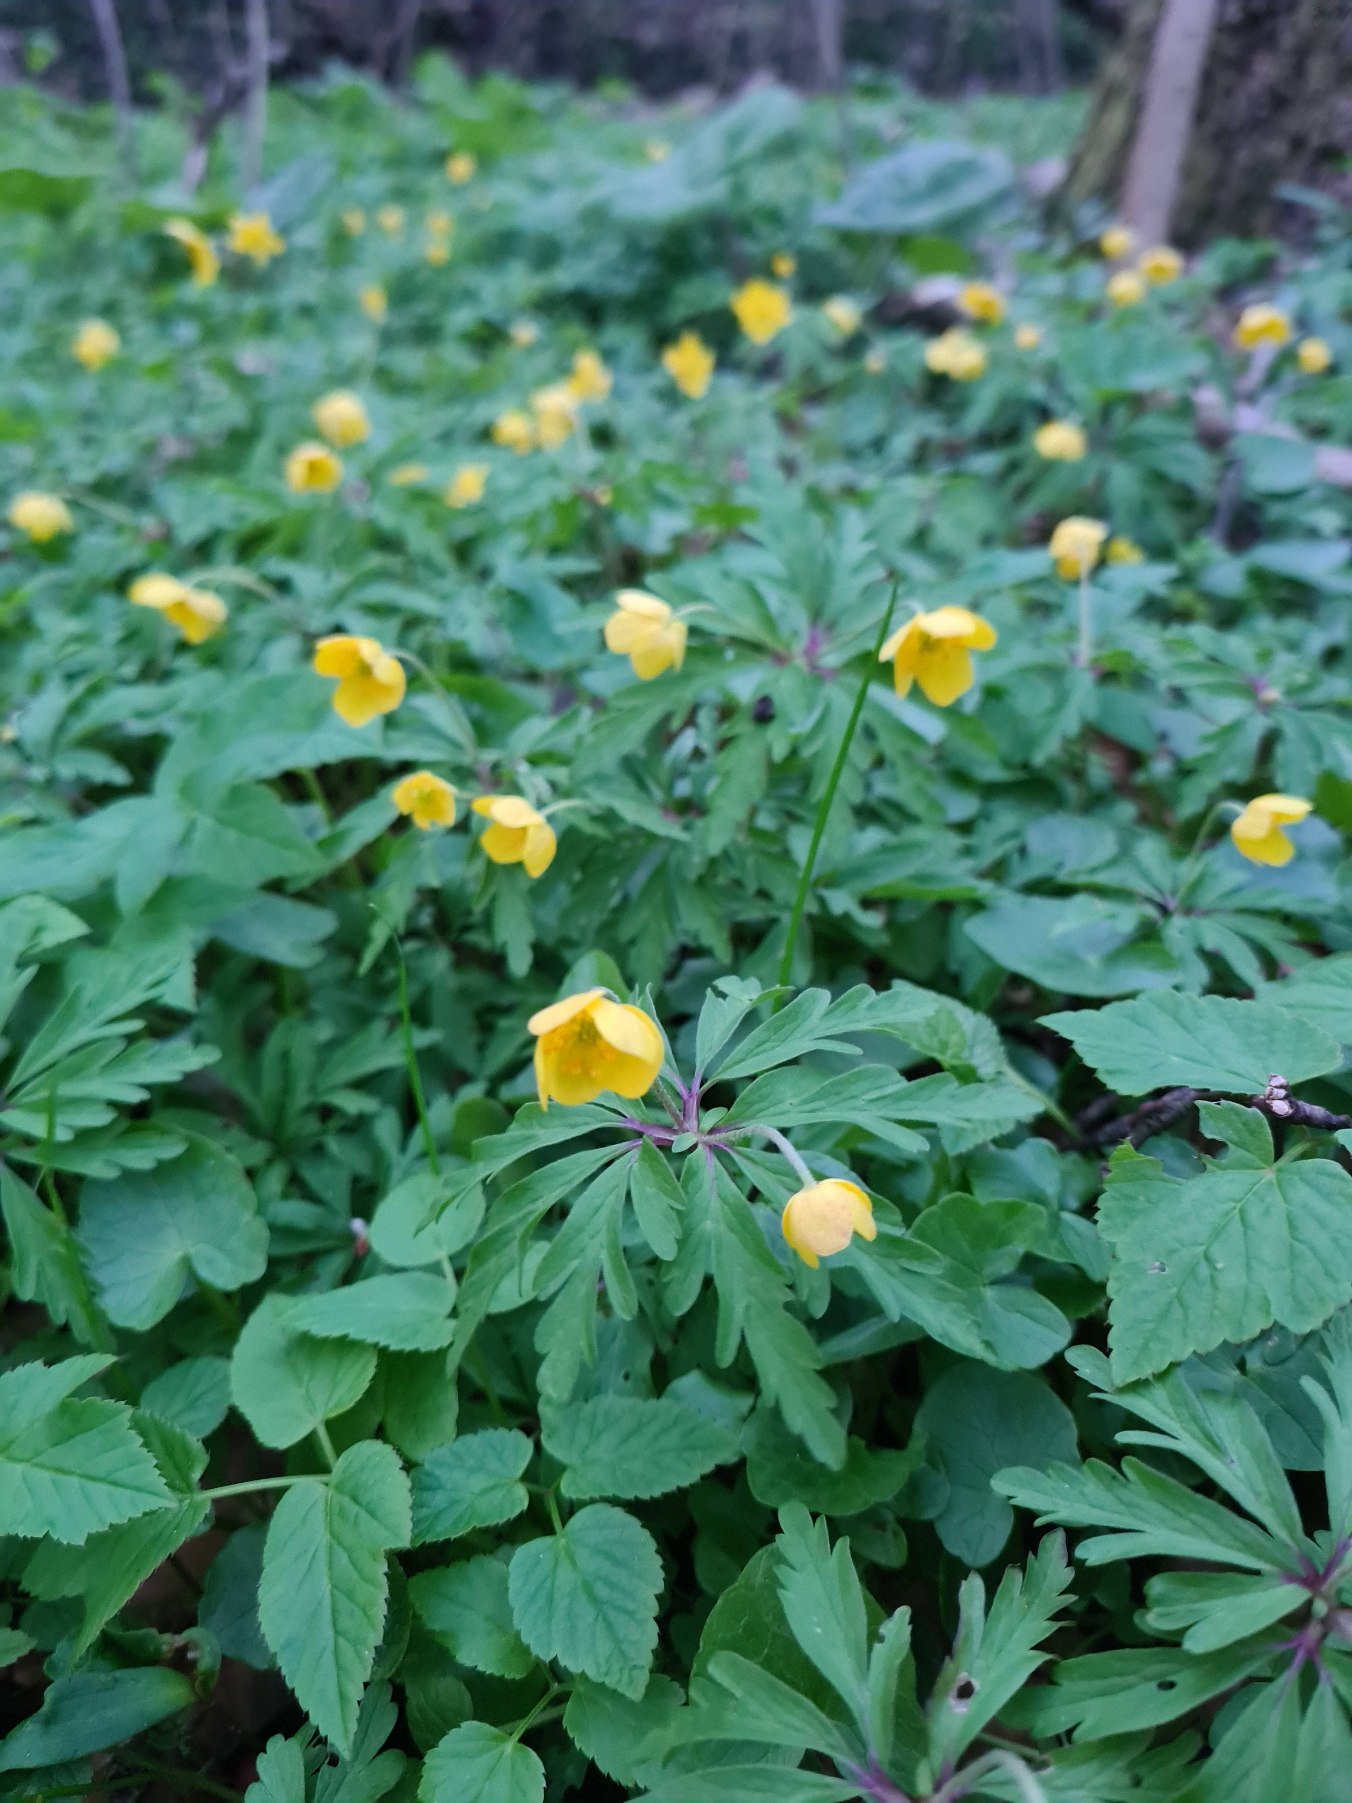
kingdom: Plantae
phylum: Tracheophyta
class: Magnoliopsida
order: Ranunculales
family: Ranunculaceae
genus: Anemone
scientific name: Anemone ranunculoides
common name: Gul anemone
